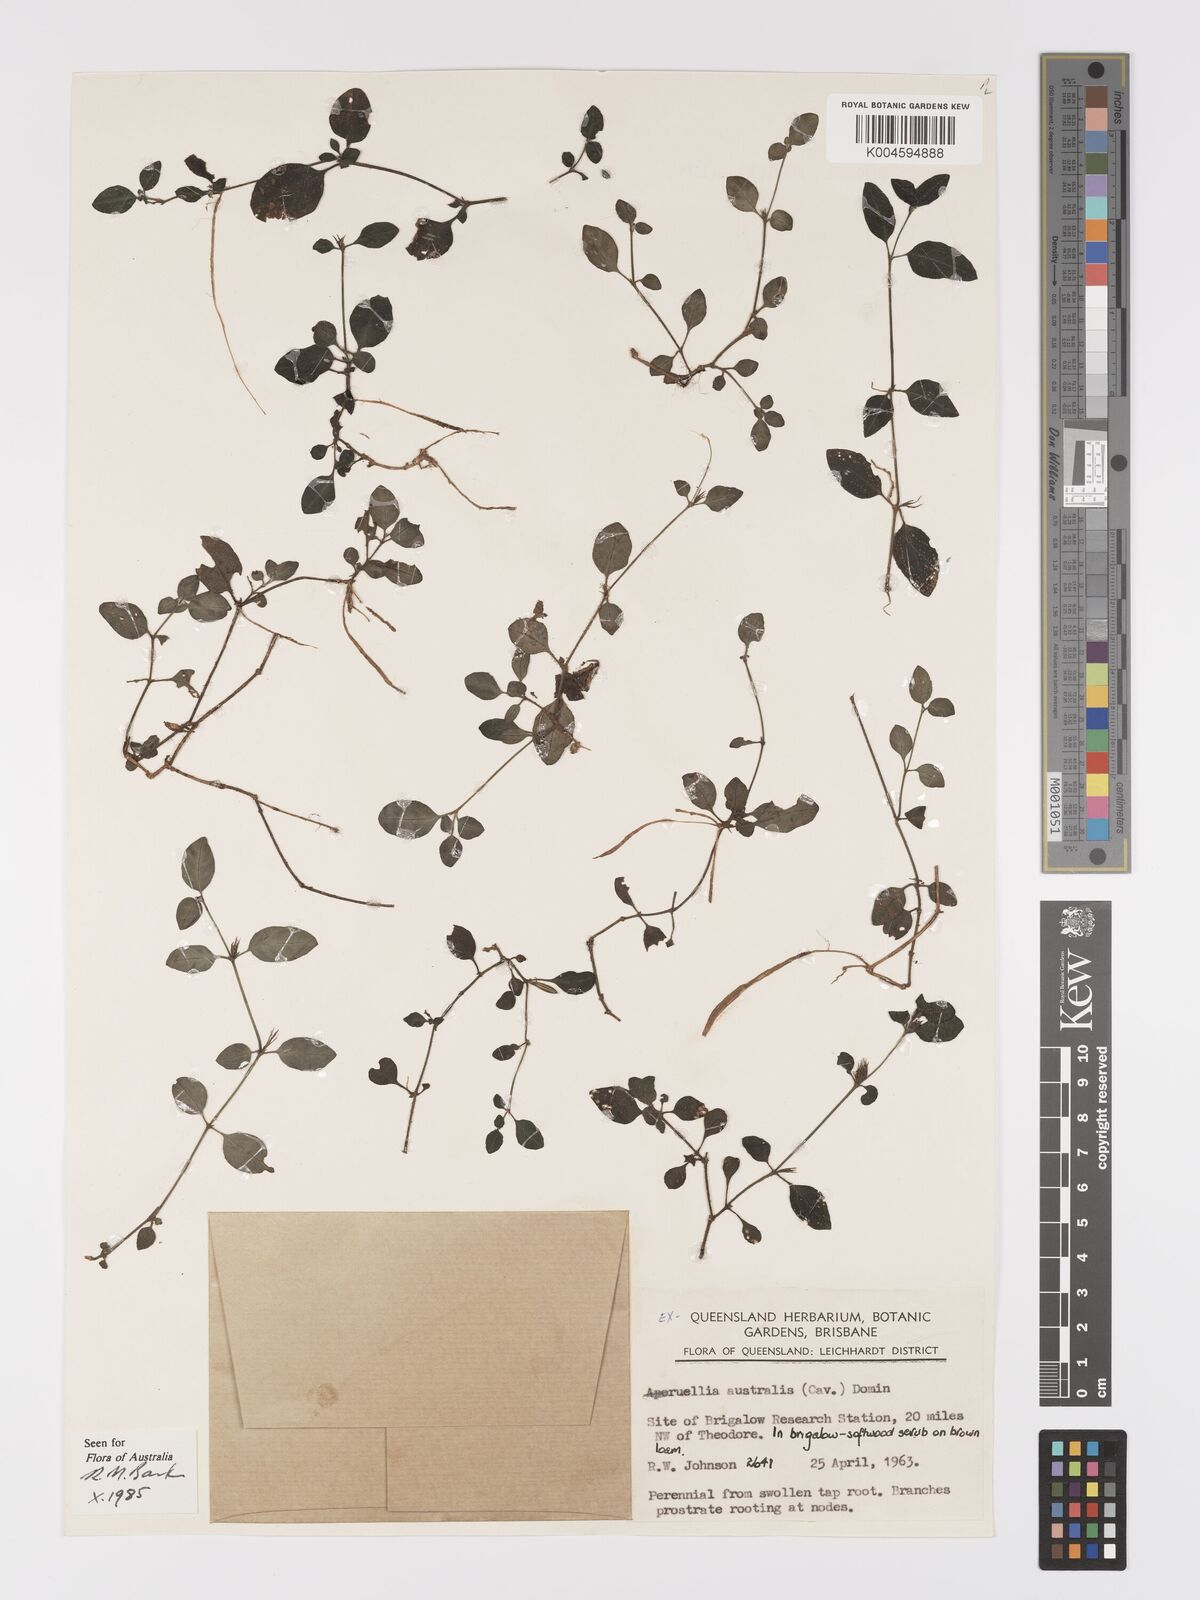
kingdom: Plantae
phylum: Tracheophyta
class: Magnoliopsida
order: Lamiales
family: Acanthaceae
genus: Brunoniella
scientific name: Brunoniella
